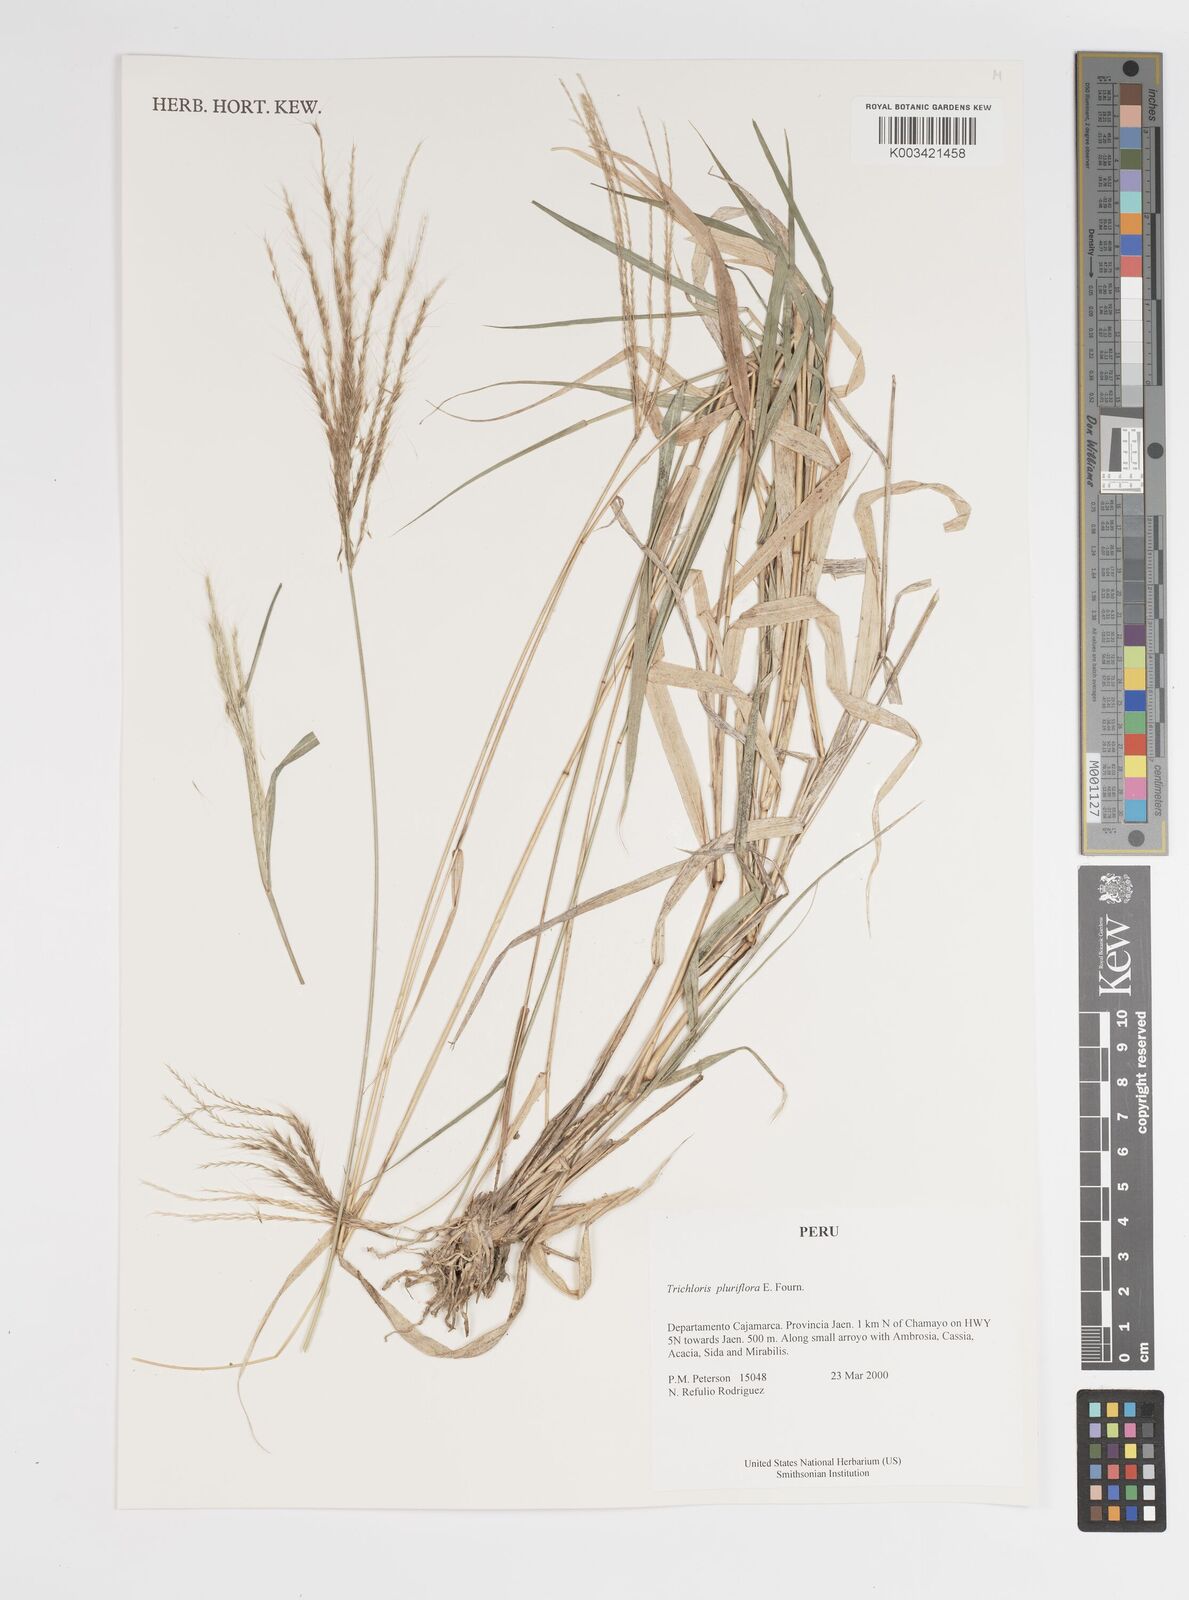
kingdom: Plantae
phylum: Tracheophyta
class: Liliopsida
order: Poales
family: Poaceae
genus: Leptochloa
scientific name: Leptochloa pluriflora
